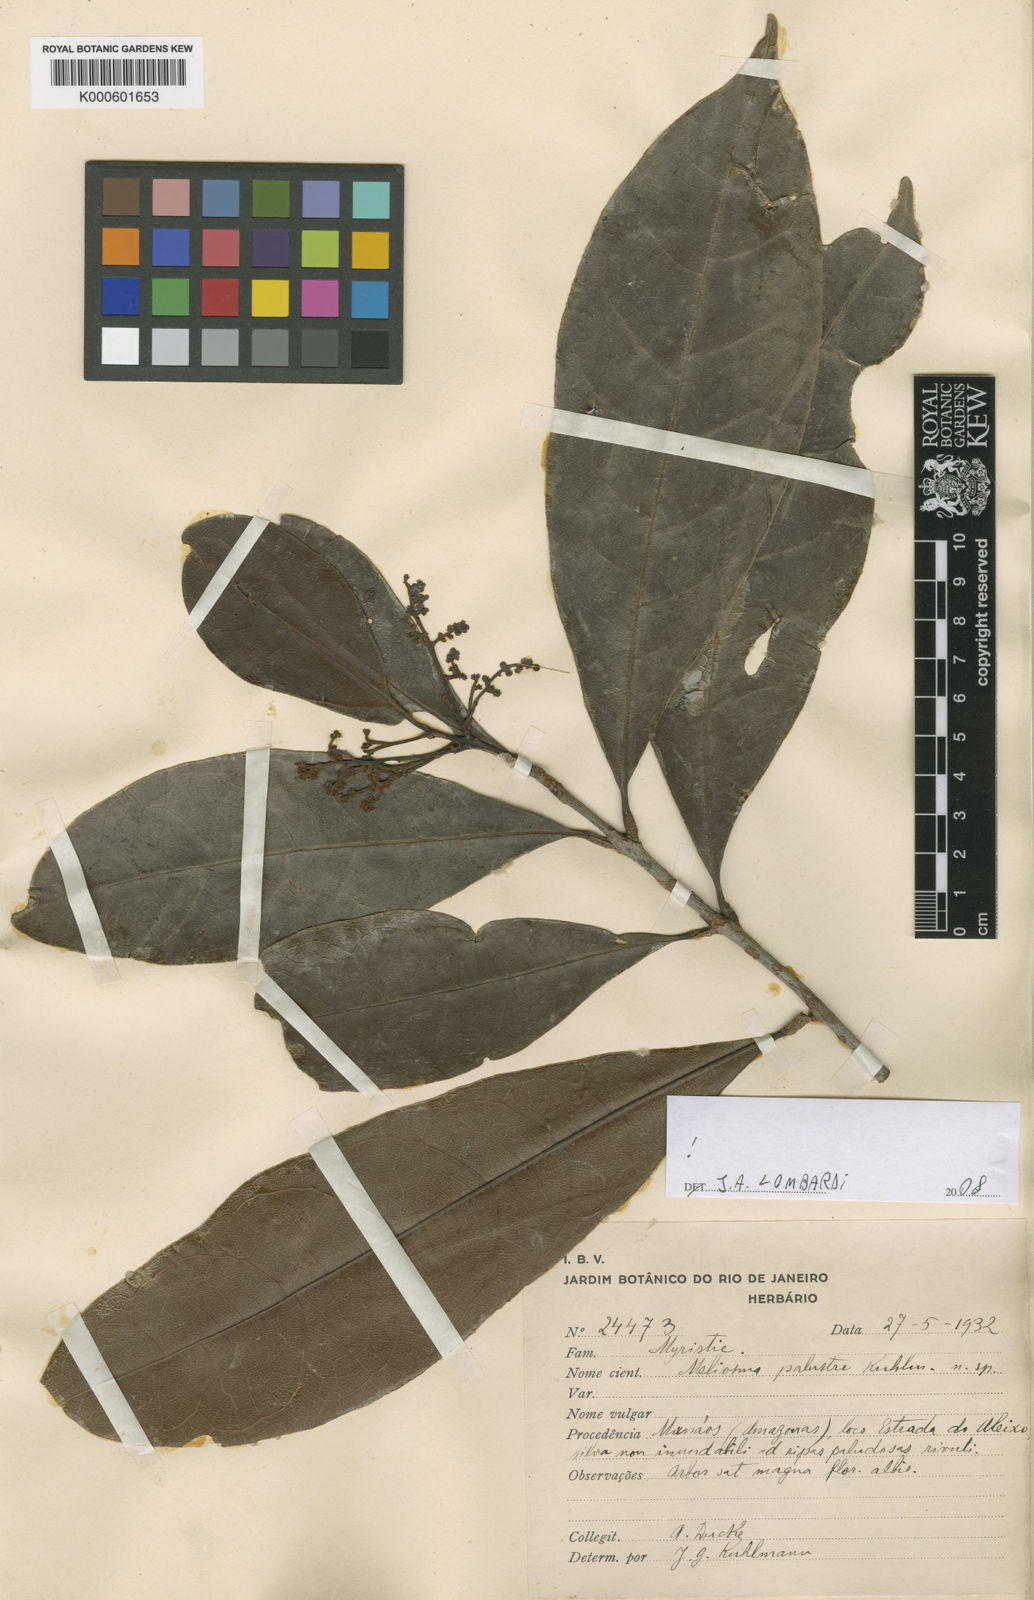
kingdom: Plantae
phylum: Tracheophyta
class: Magnoliopsida
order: Proteales
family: Sabiaceae
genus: Meliosma
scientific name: Meliosma herbertii
